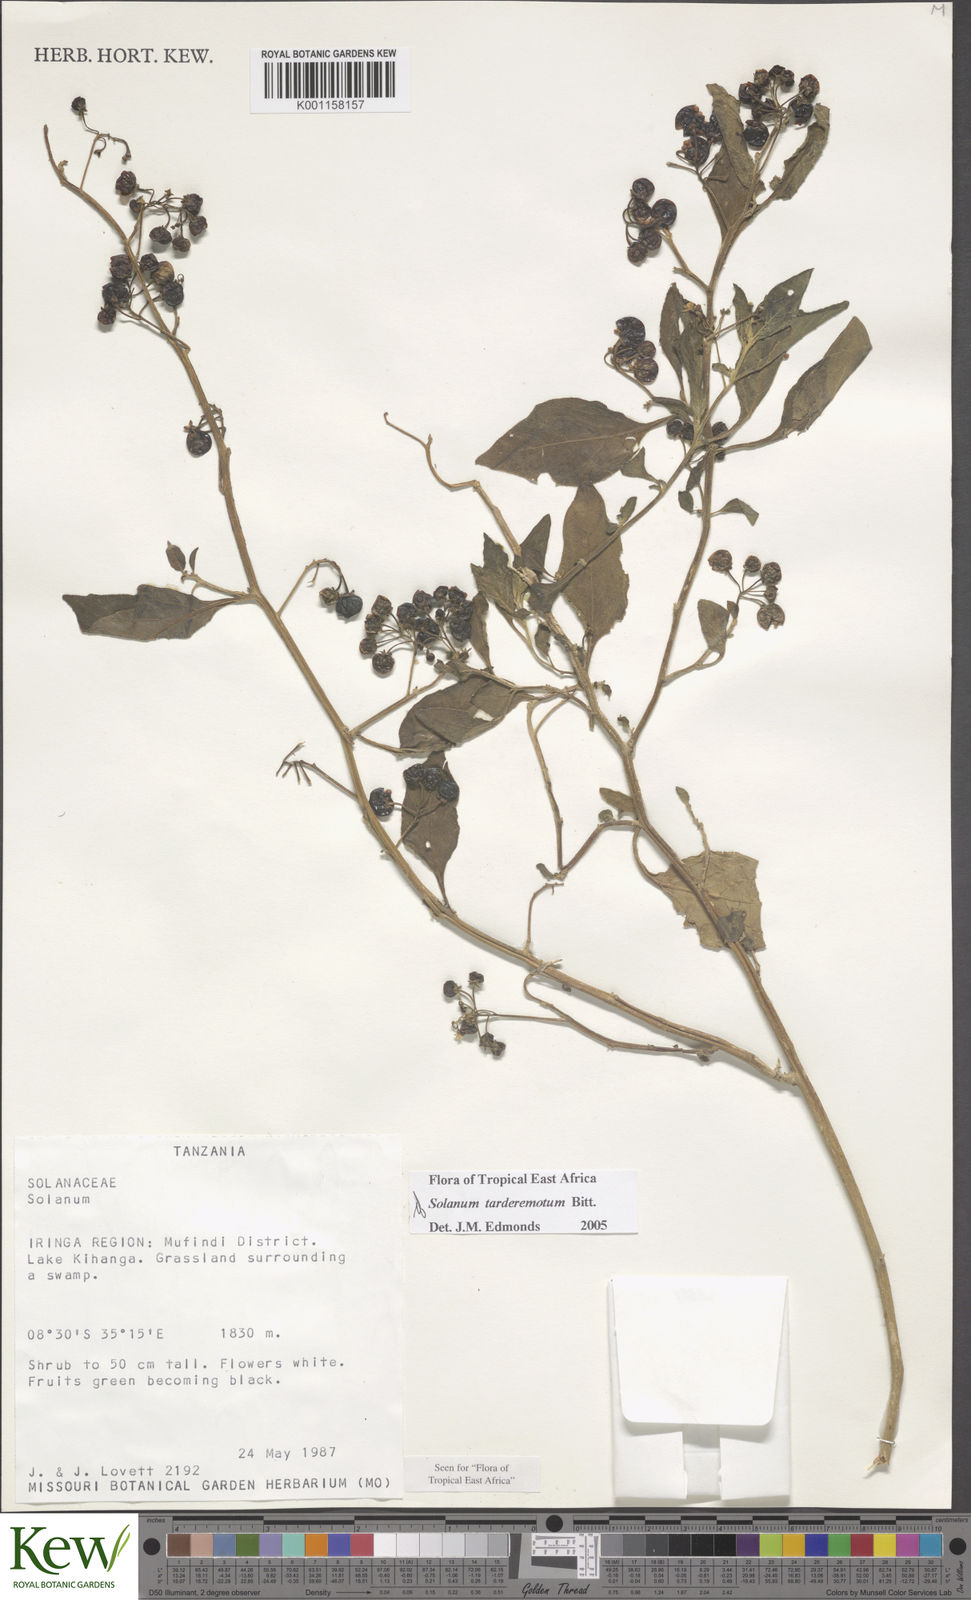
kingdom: Plantae
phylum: Tracheophyta
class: Magnoliopsida
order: Solanales
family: Solanaceae
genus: Solanum
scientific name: Solanum tarderemotum
